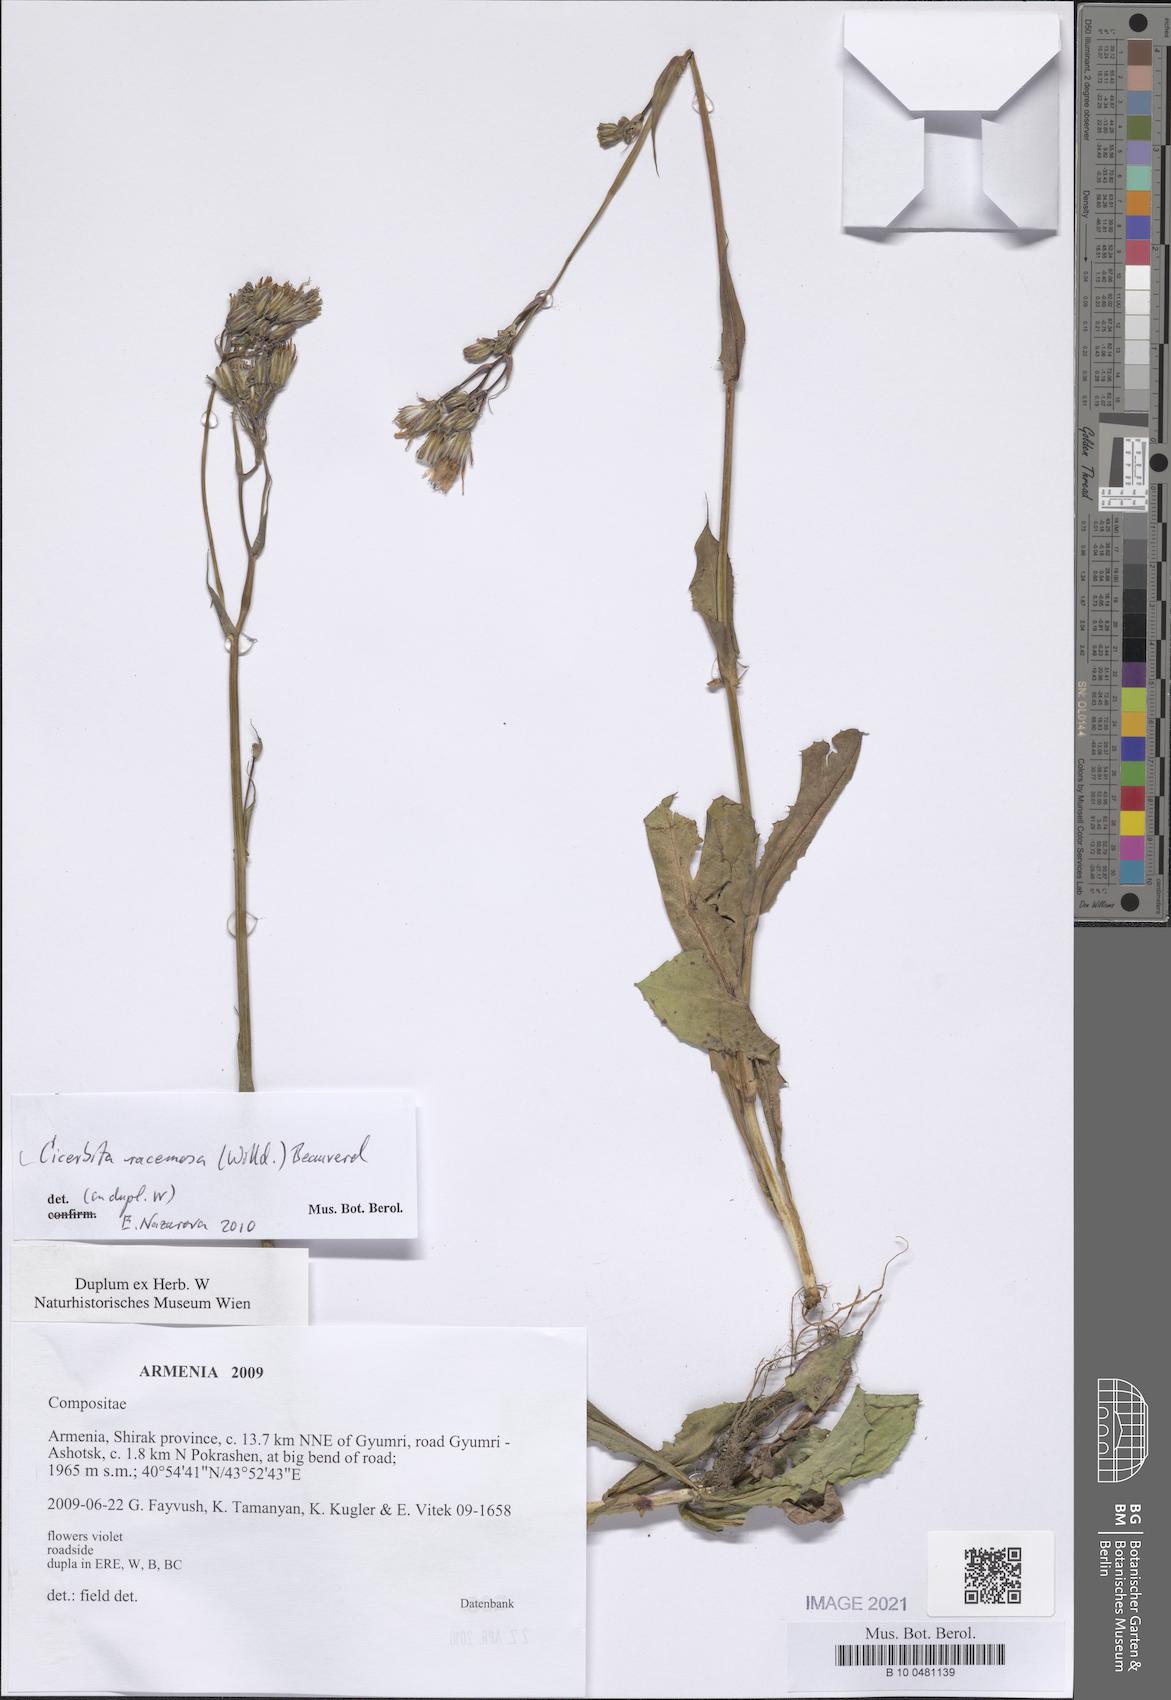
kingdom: Plantae
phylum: Tracheophyta
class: Magnoliopsida
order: Asterales
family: Asteraceae
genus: Lactuca
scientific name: Lactuca racemosa
